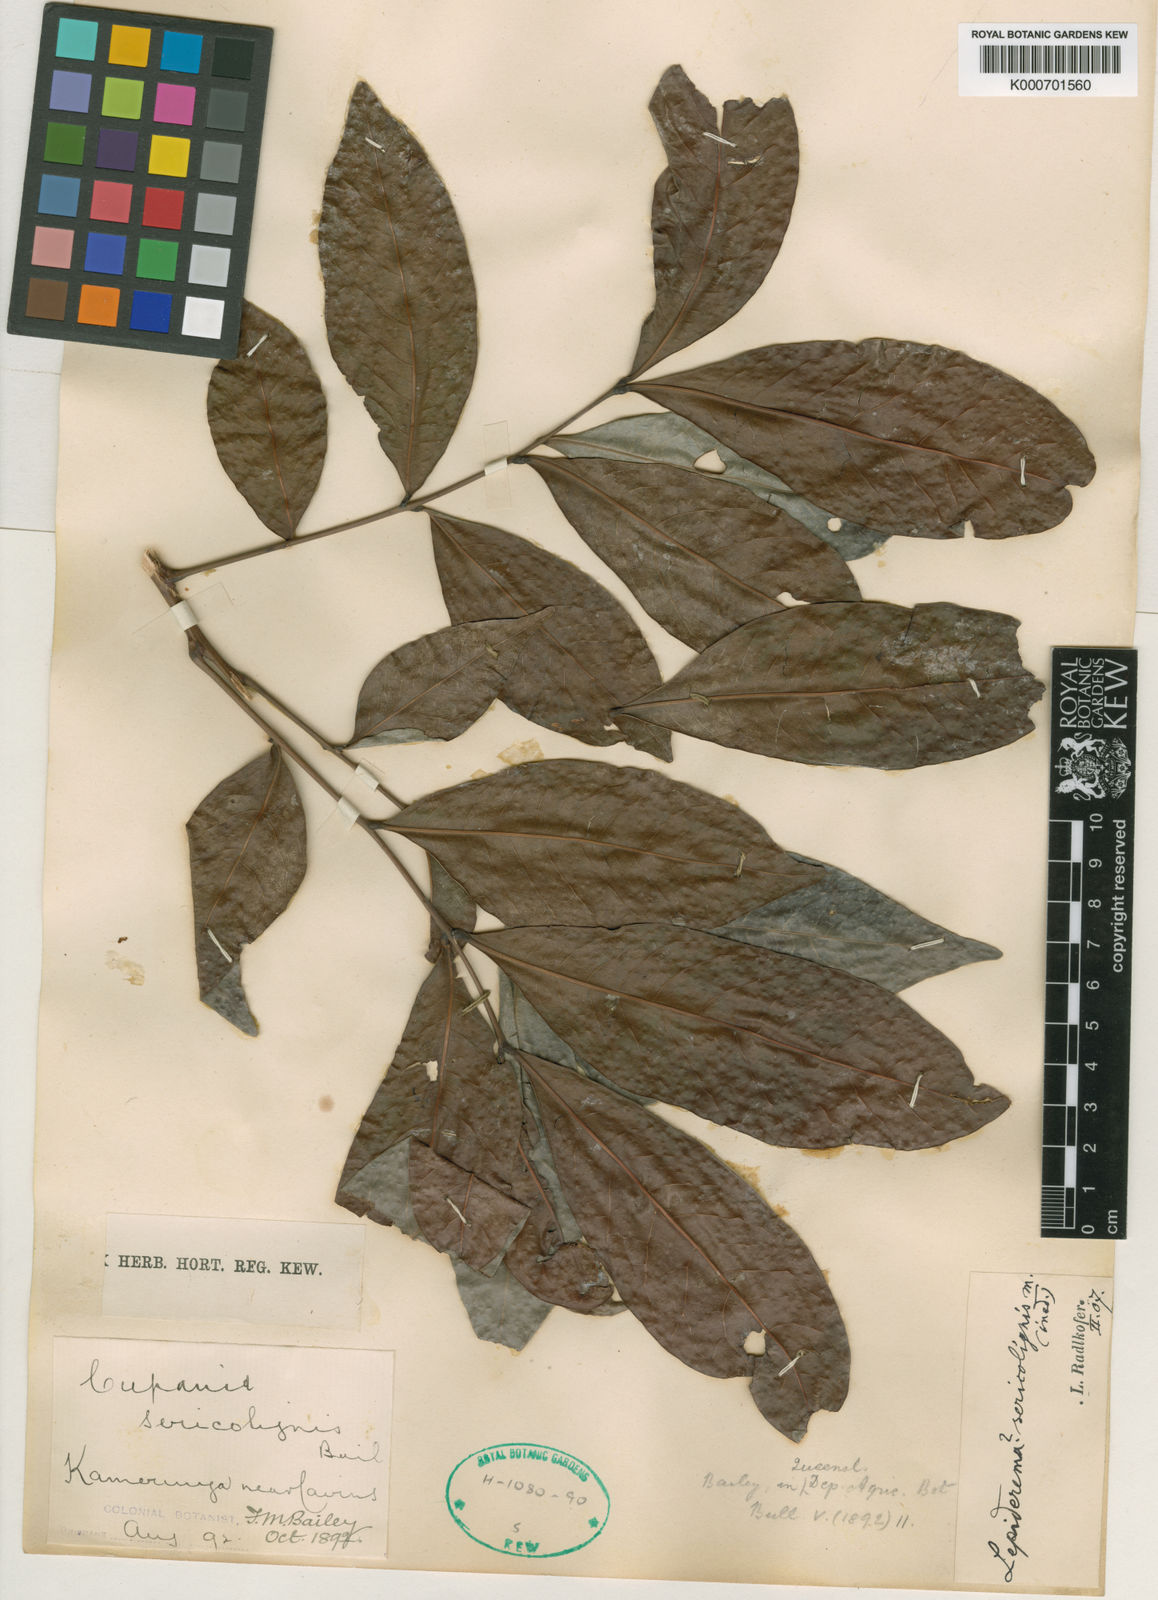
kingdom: Plantae
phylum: Tracheophyta
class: Magnoliopsida
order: Sapindales
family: Sapindaceae
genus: Lepiderema
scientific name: Lepiderema sericolignis
